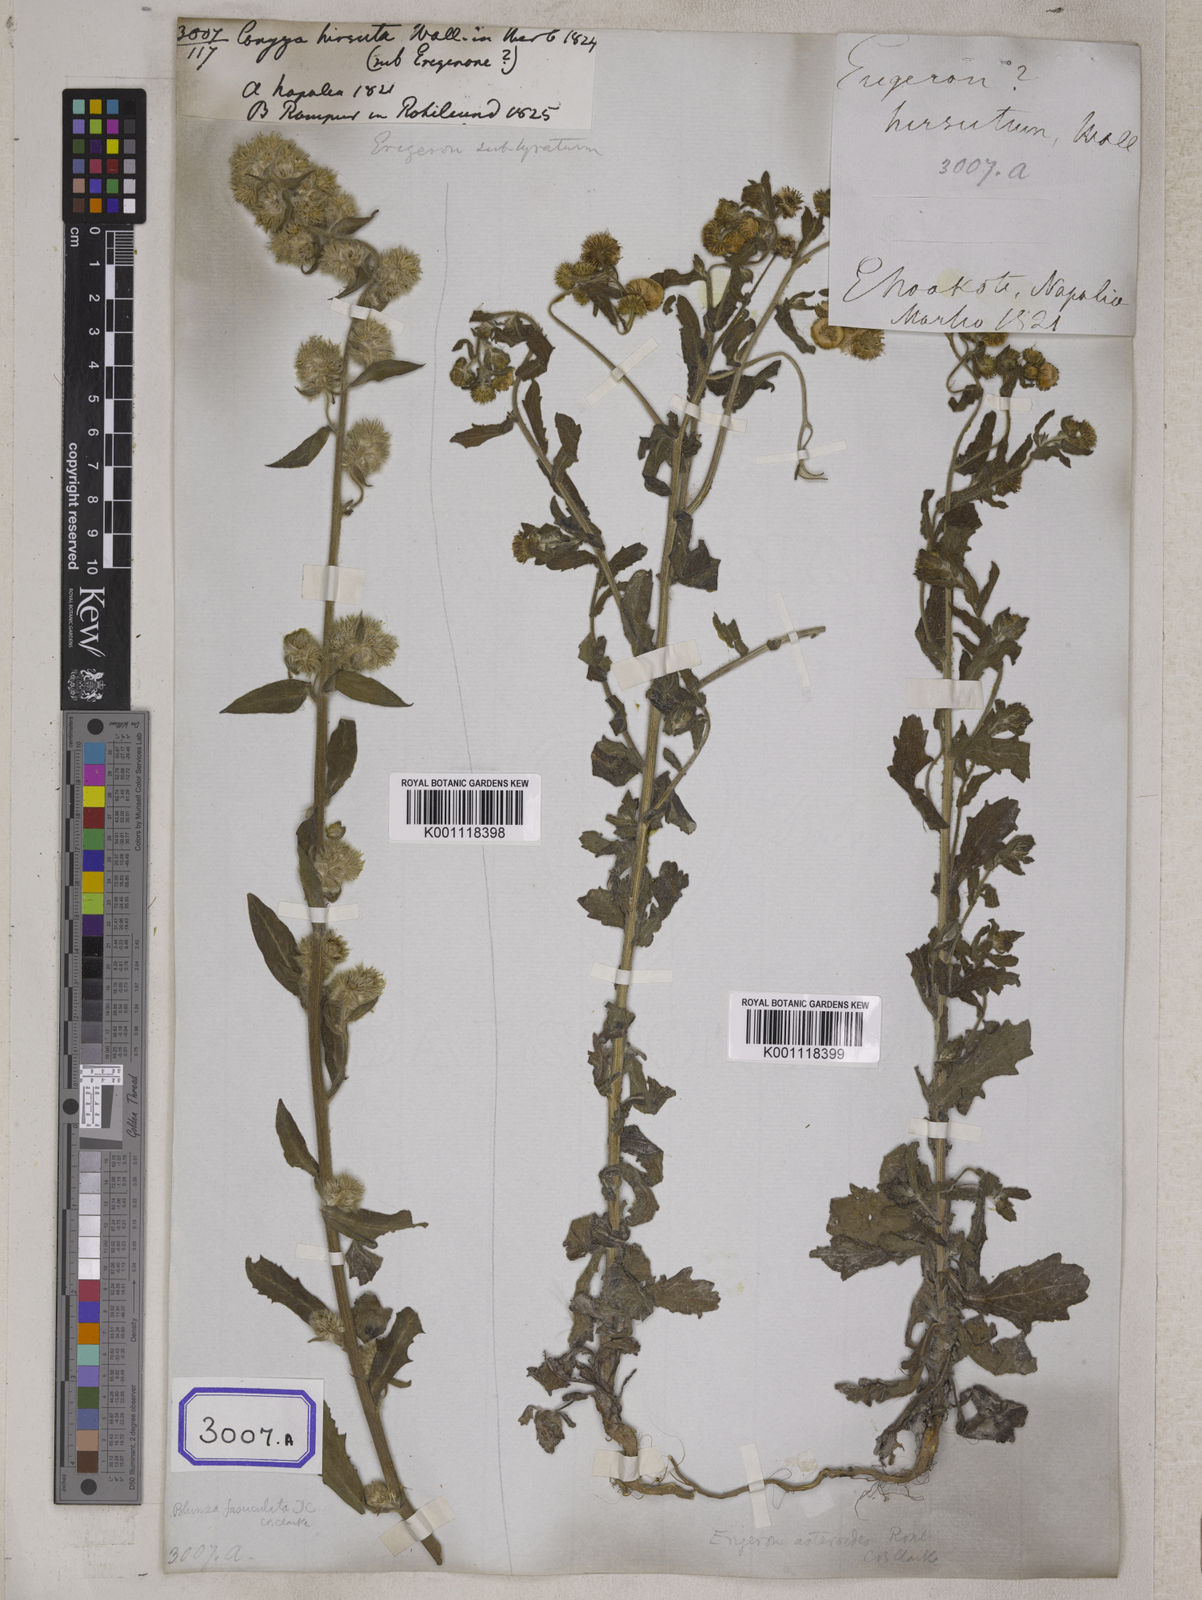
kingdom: Plantae
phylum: Tracheophyta
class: Magnoliopsida
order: Asterales
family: Asteraceae
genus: Conyza
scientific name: Conyza
